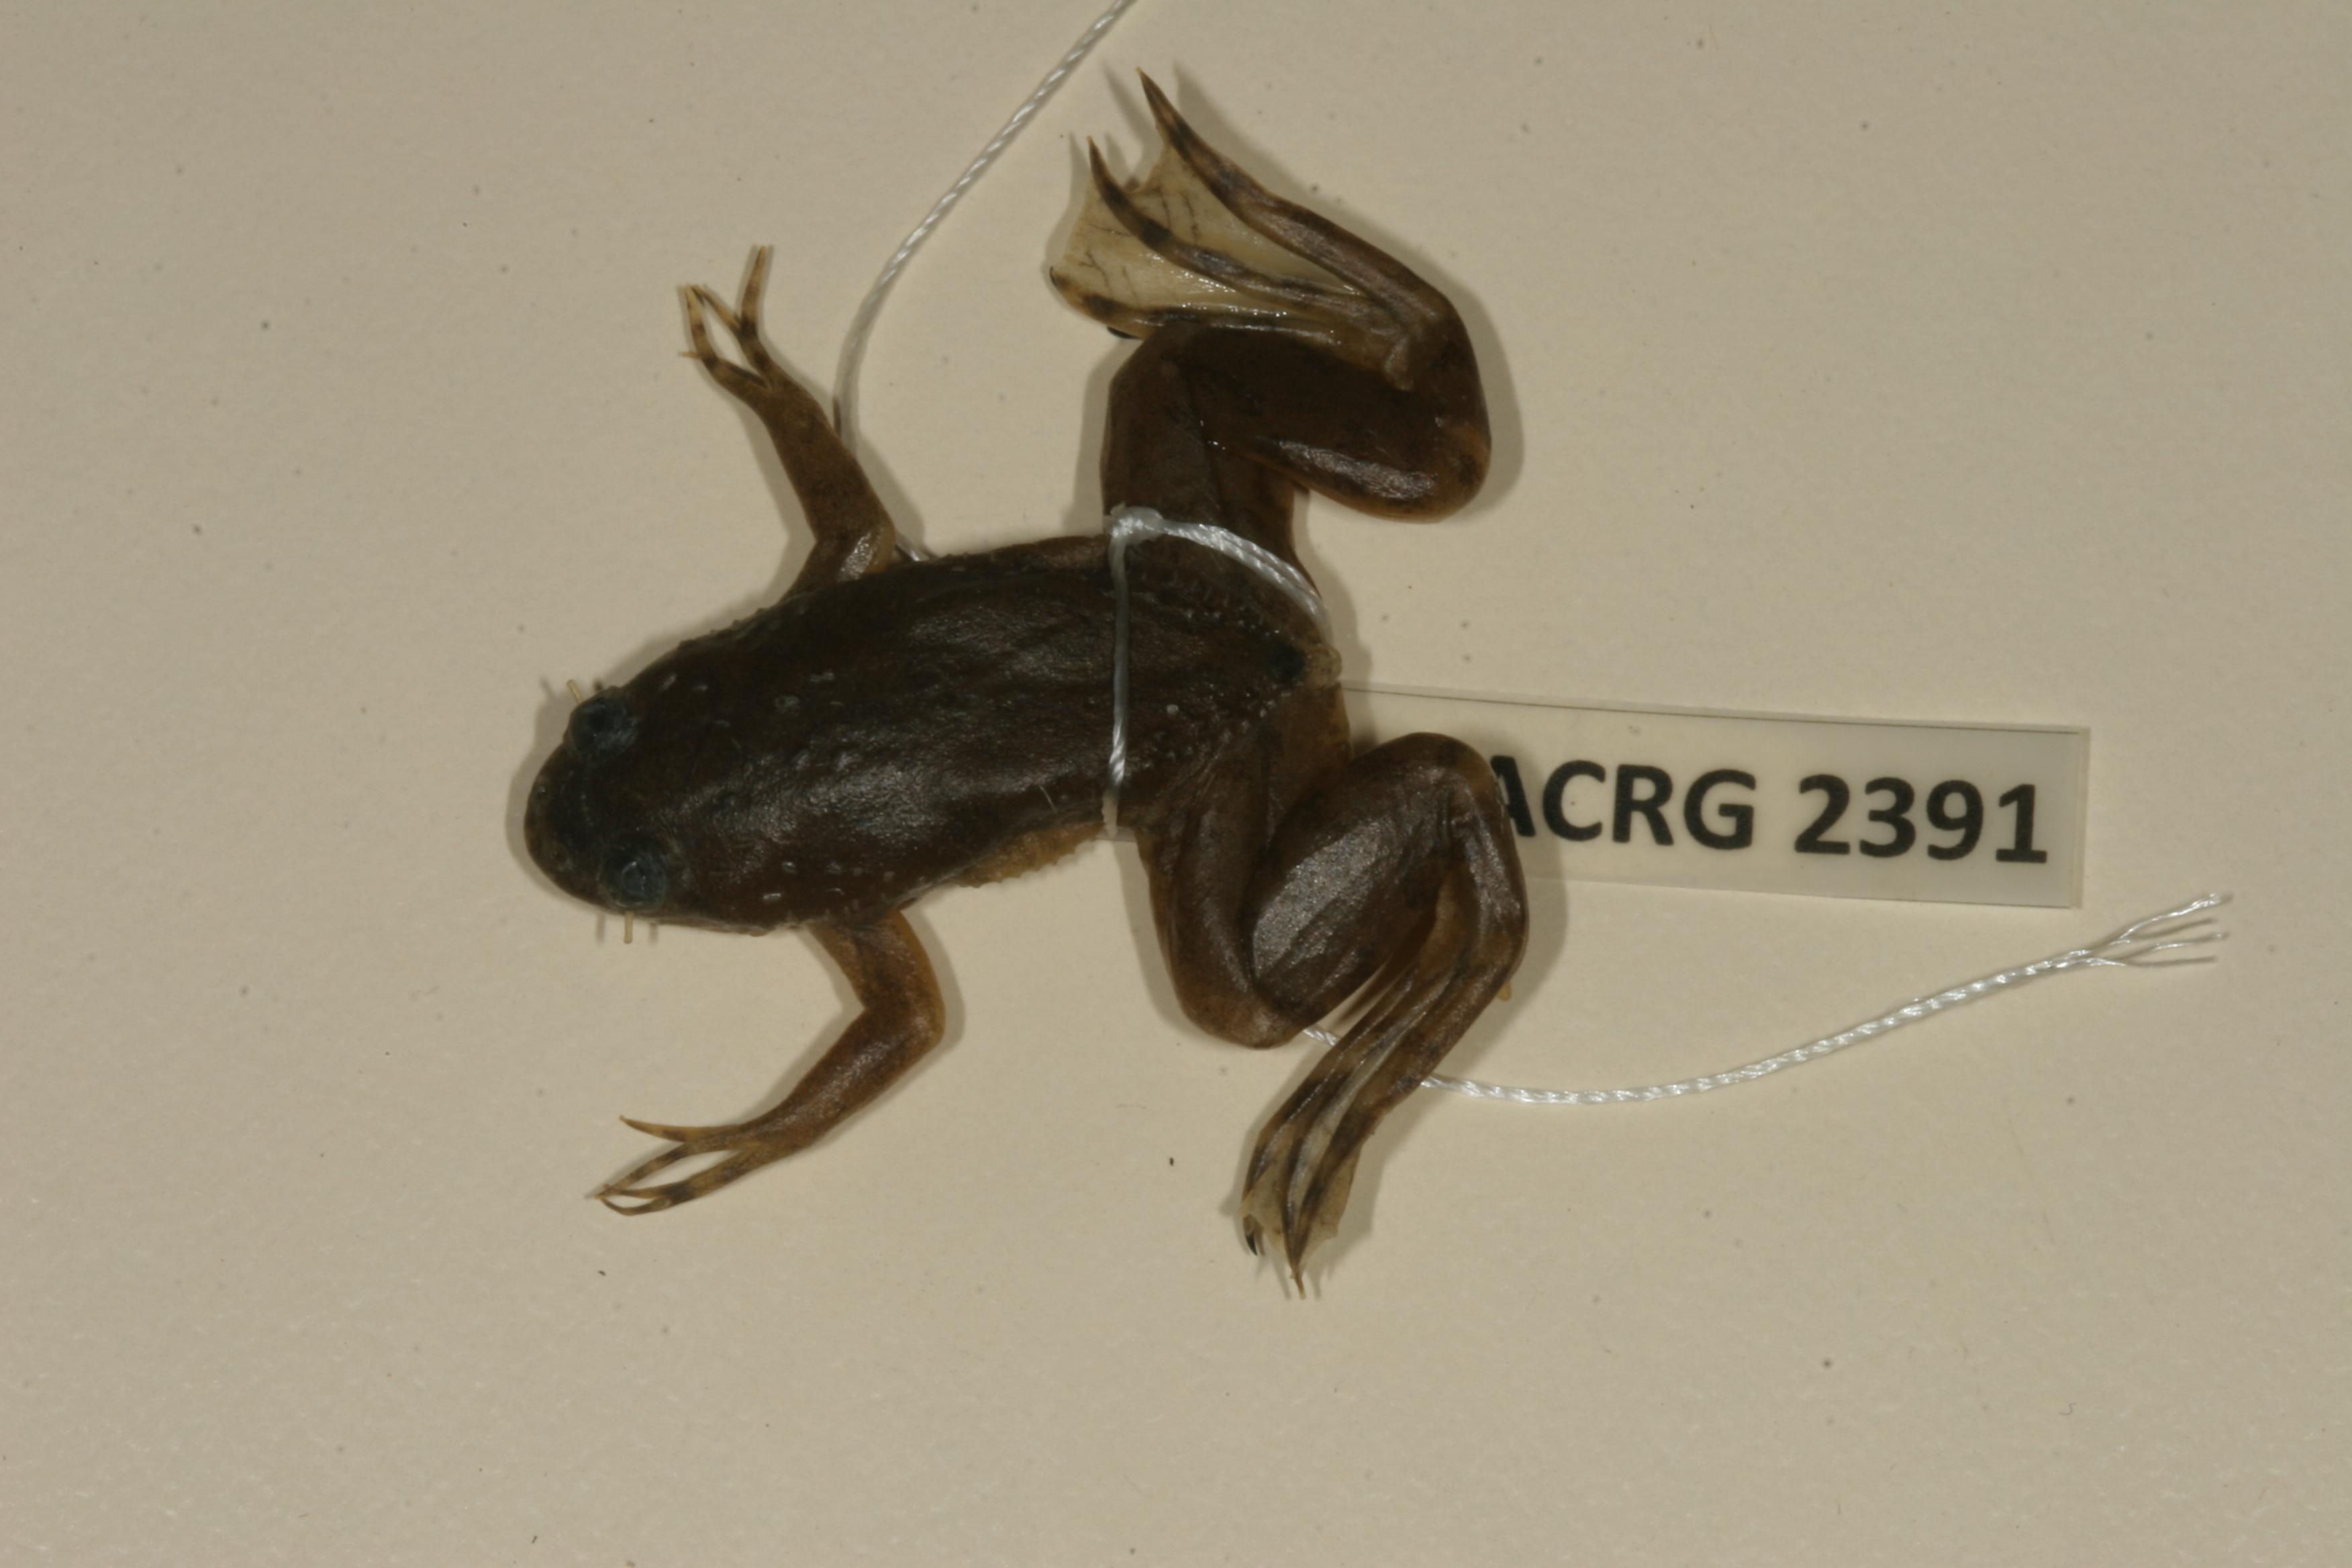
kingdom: Animalia
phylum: Chordata
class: Amphibia
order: Anura
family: Pipidae
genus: Xenopus
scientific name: Xenopus muelleri
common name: Muller's clawed frog
